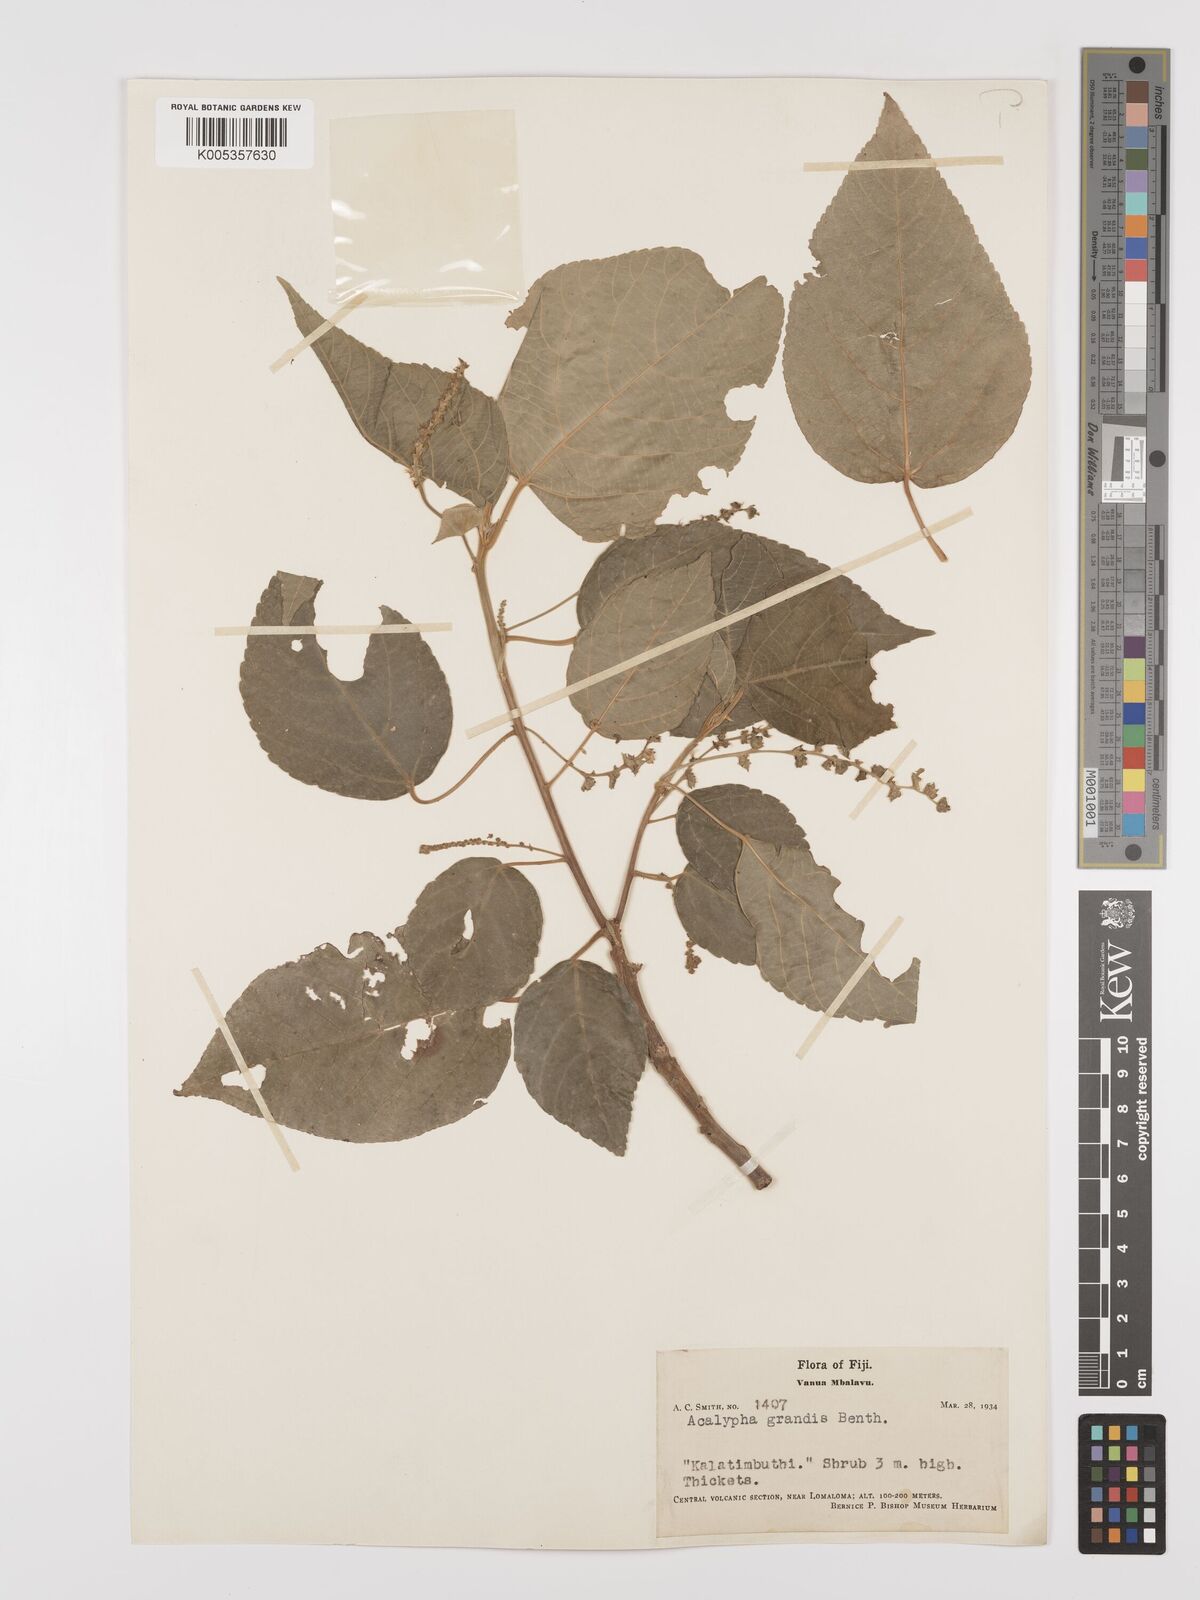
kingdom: Plantae
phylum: Tracheophyta
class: Magnoliopsida
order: Malpighiales
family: Euphorbiaceae
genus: Acalypha
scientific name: Acalypha grandis
